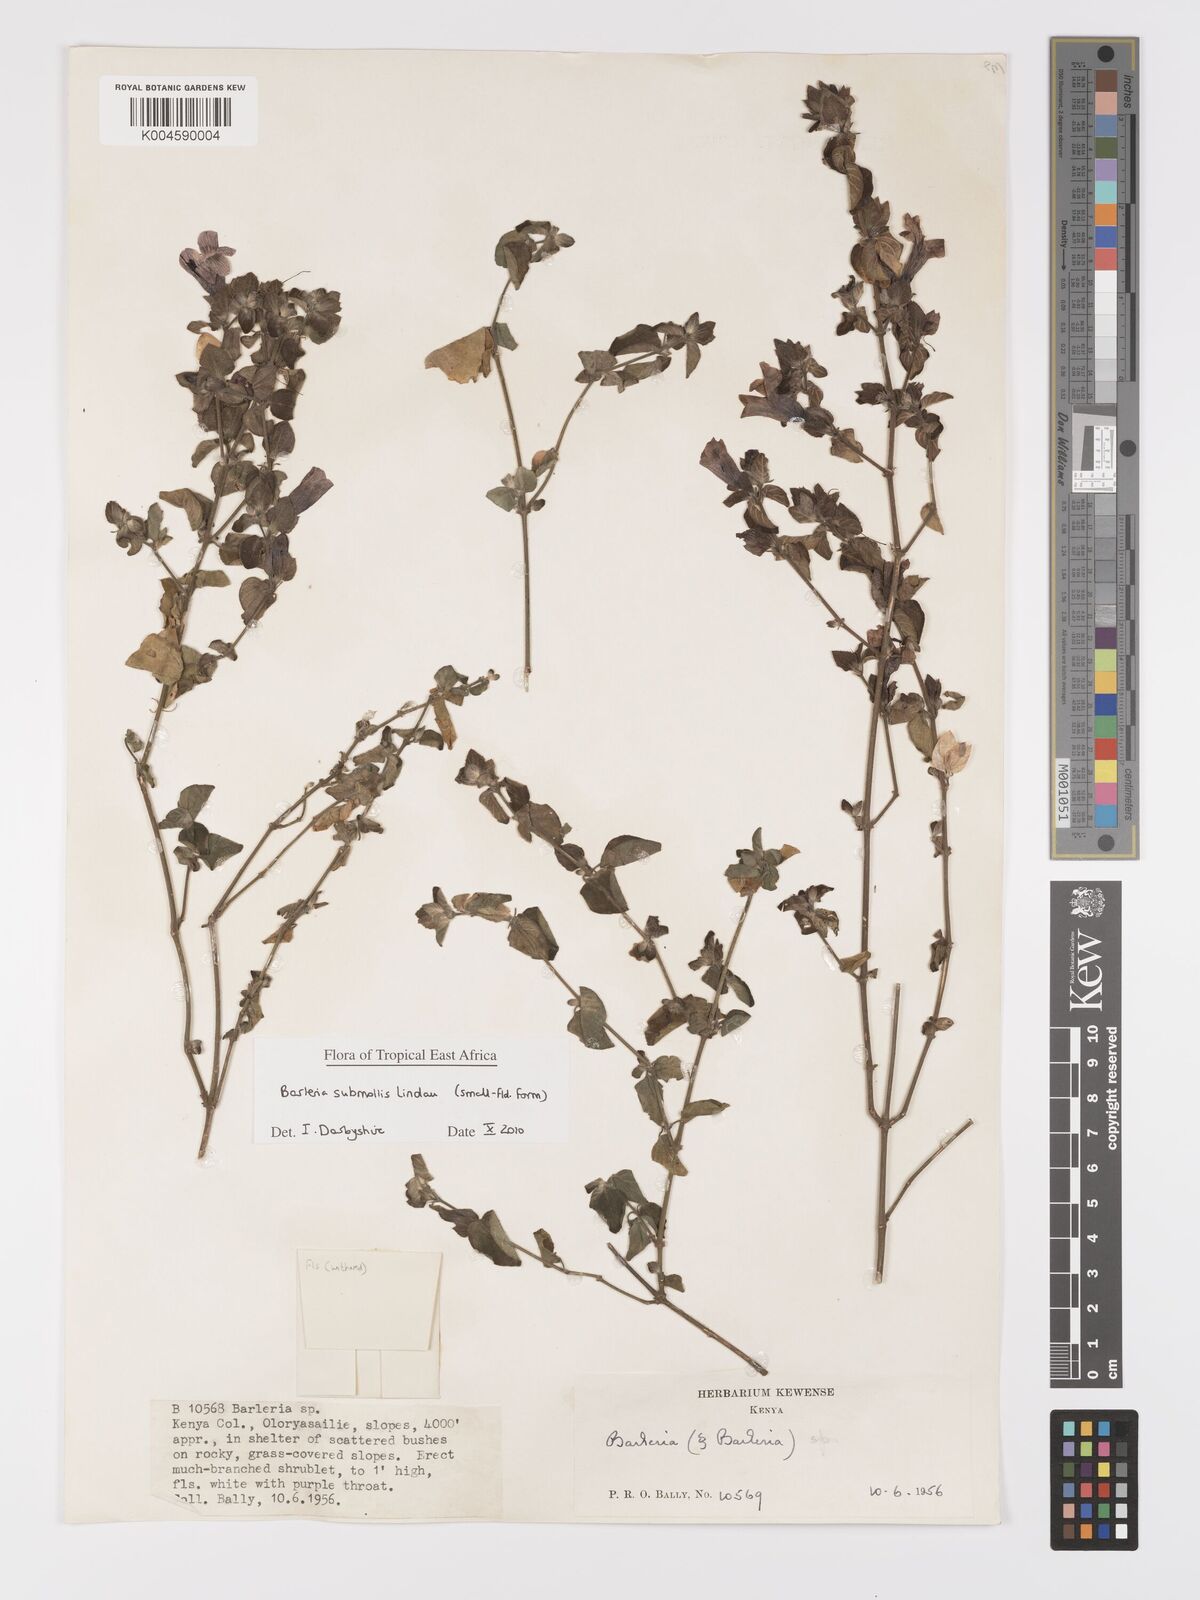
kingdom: Plantae
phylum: Tracheophyta
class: Magnoliopsida
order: Lamiales
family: Acanthaceae
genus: Barleria
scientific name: Barleria submollis
